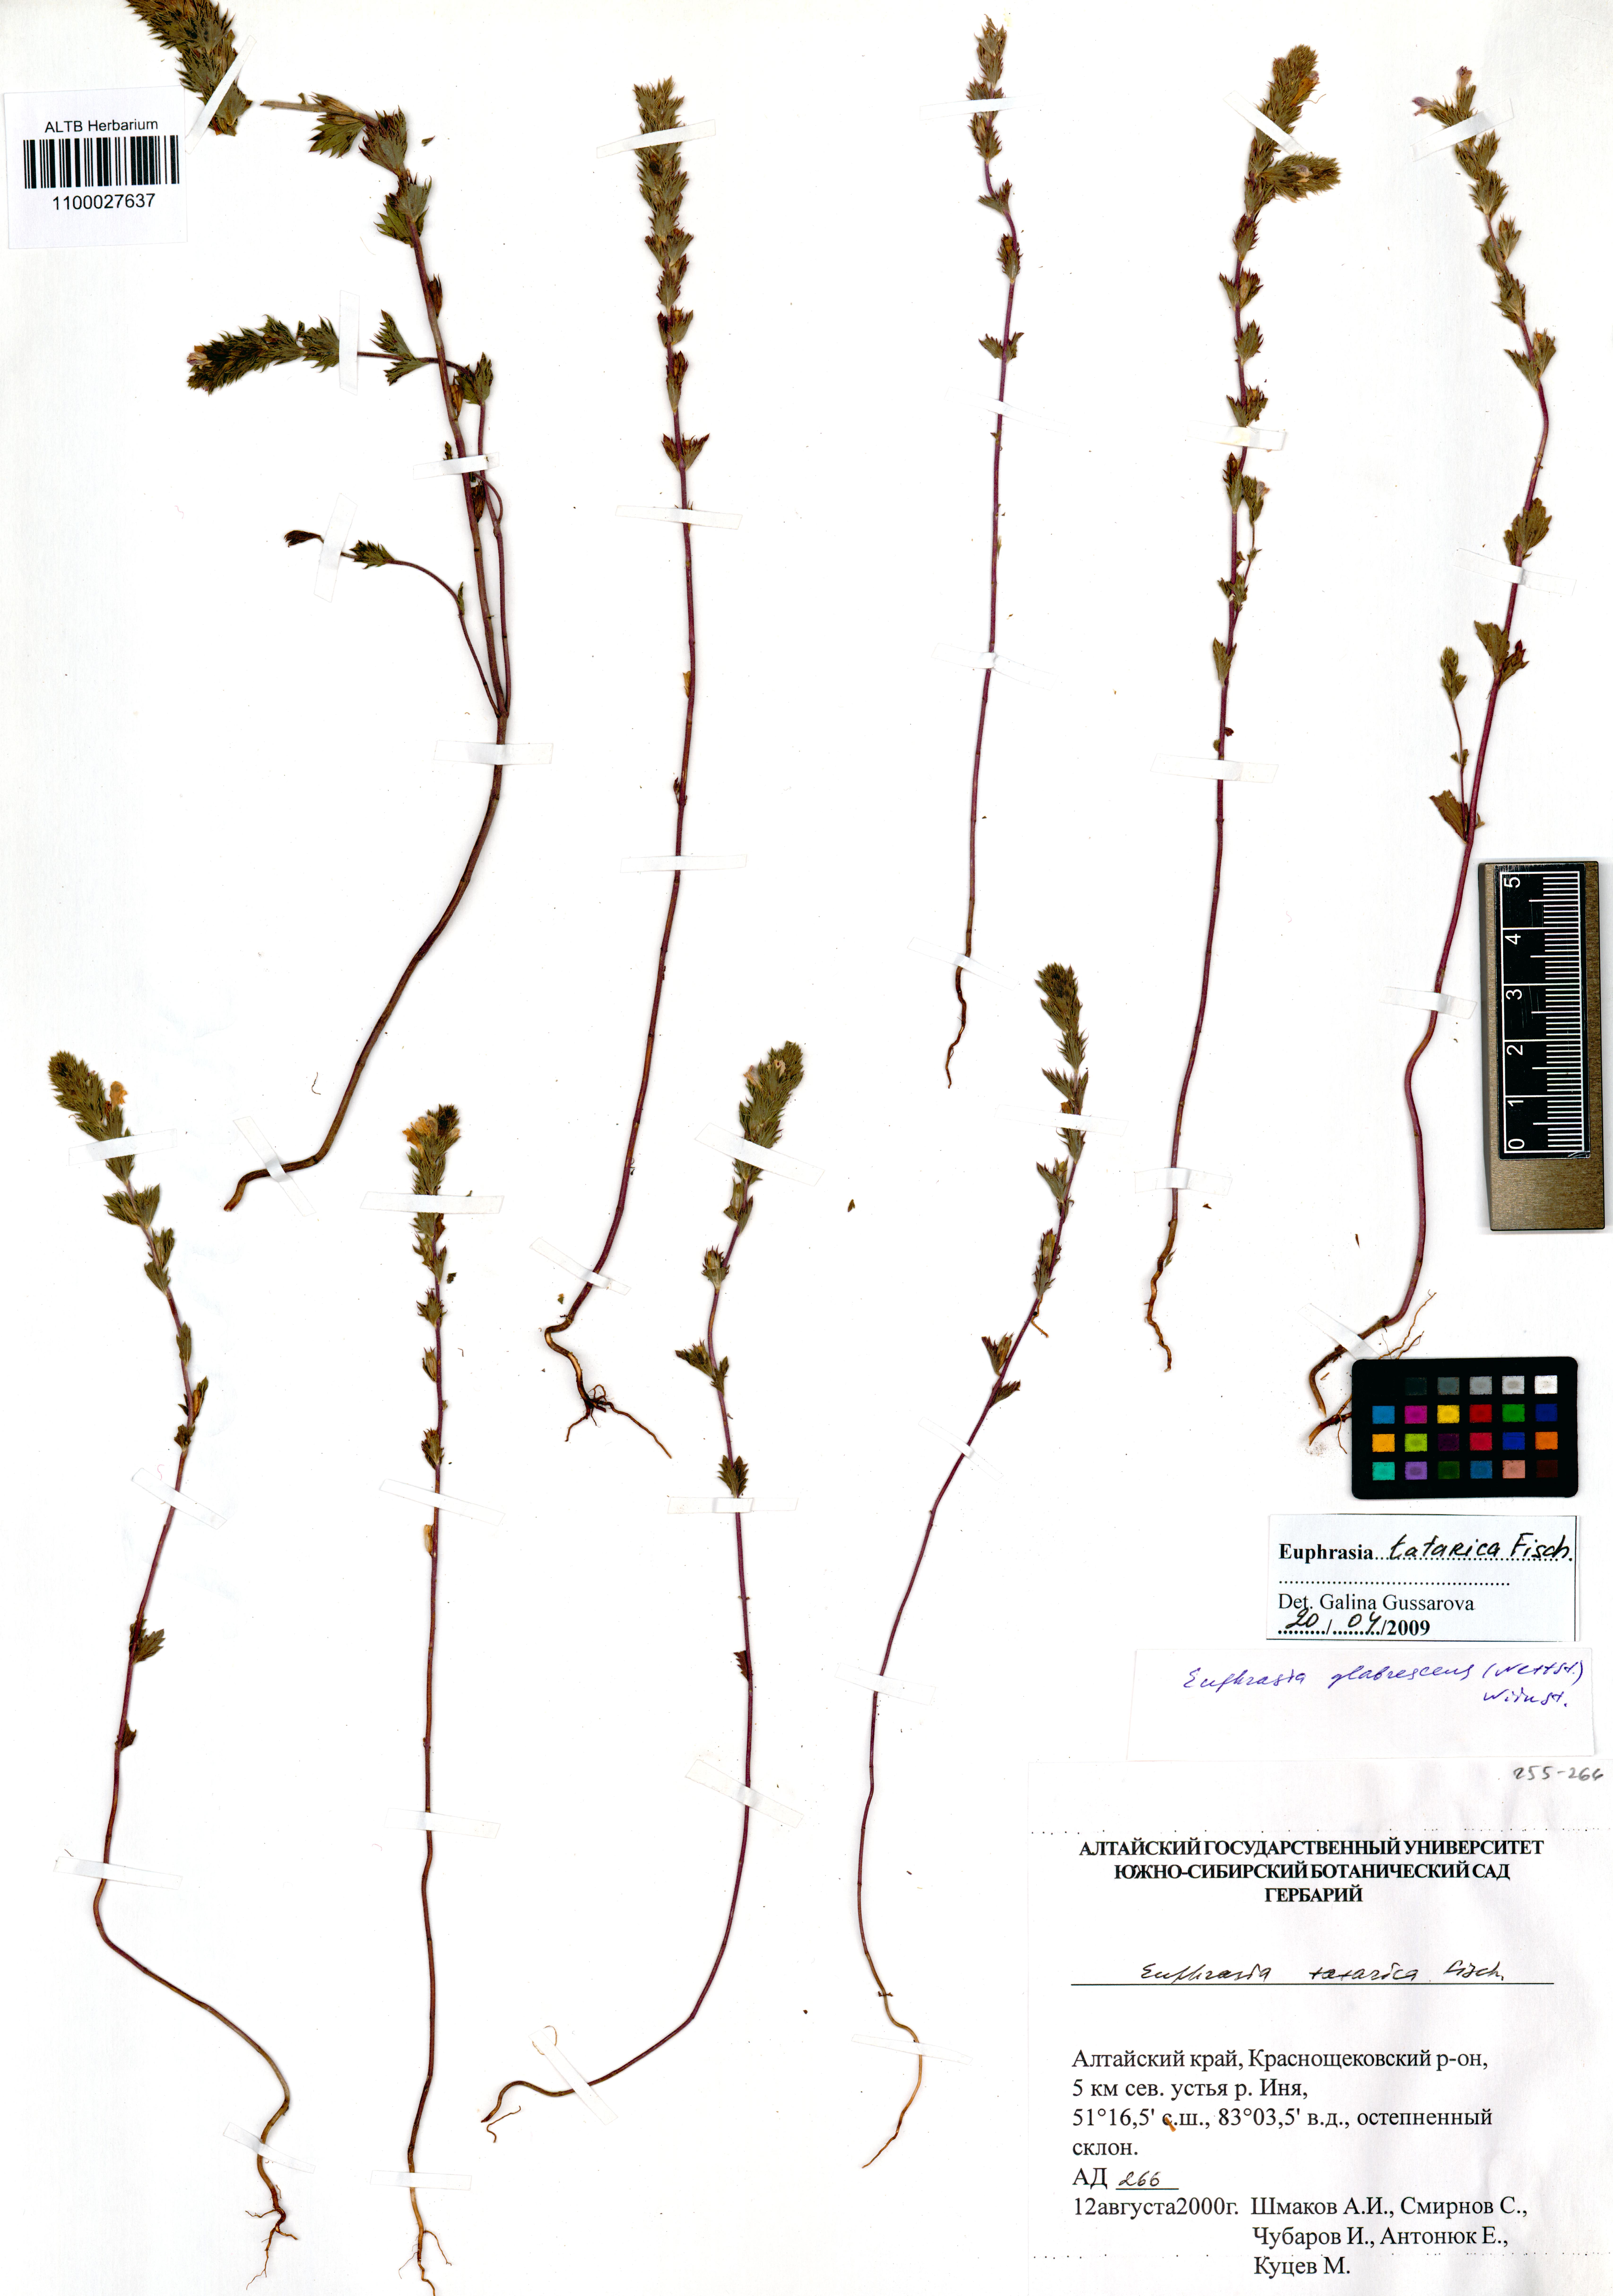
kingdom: Plantae
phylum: Tracheophyta
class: Magnoliopsida
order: Lamiales
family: Orobanchaceae
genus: Euphrasia
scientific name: Euphrasia pectinata
